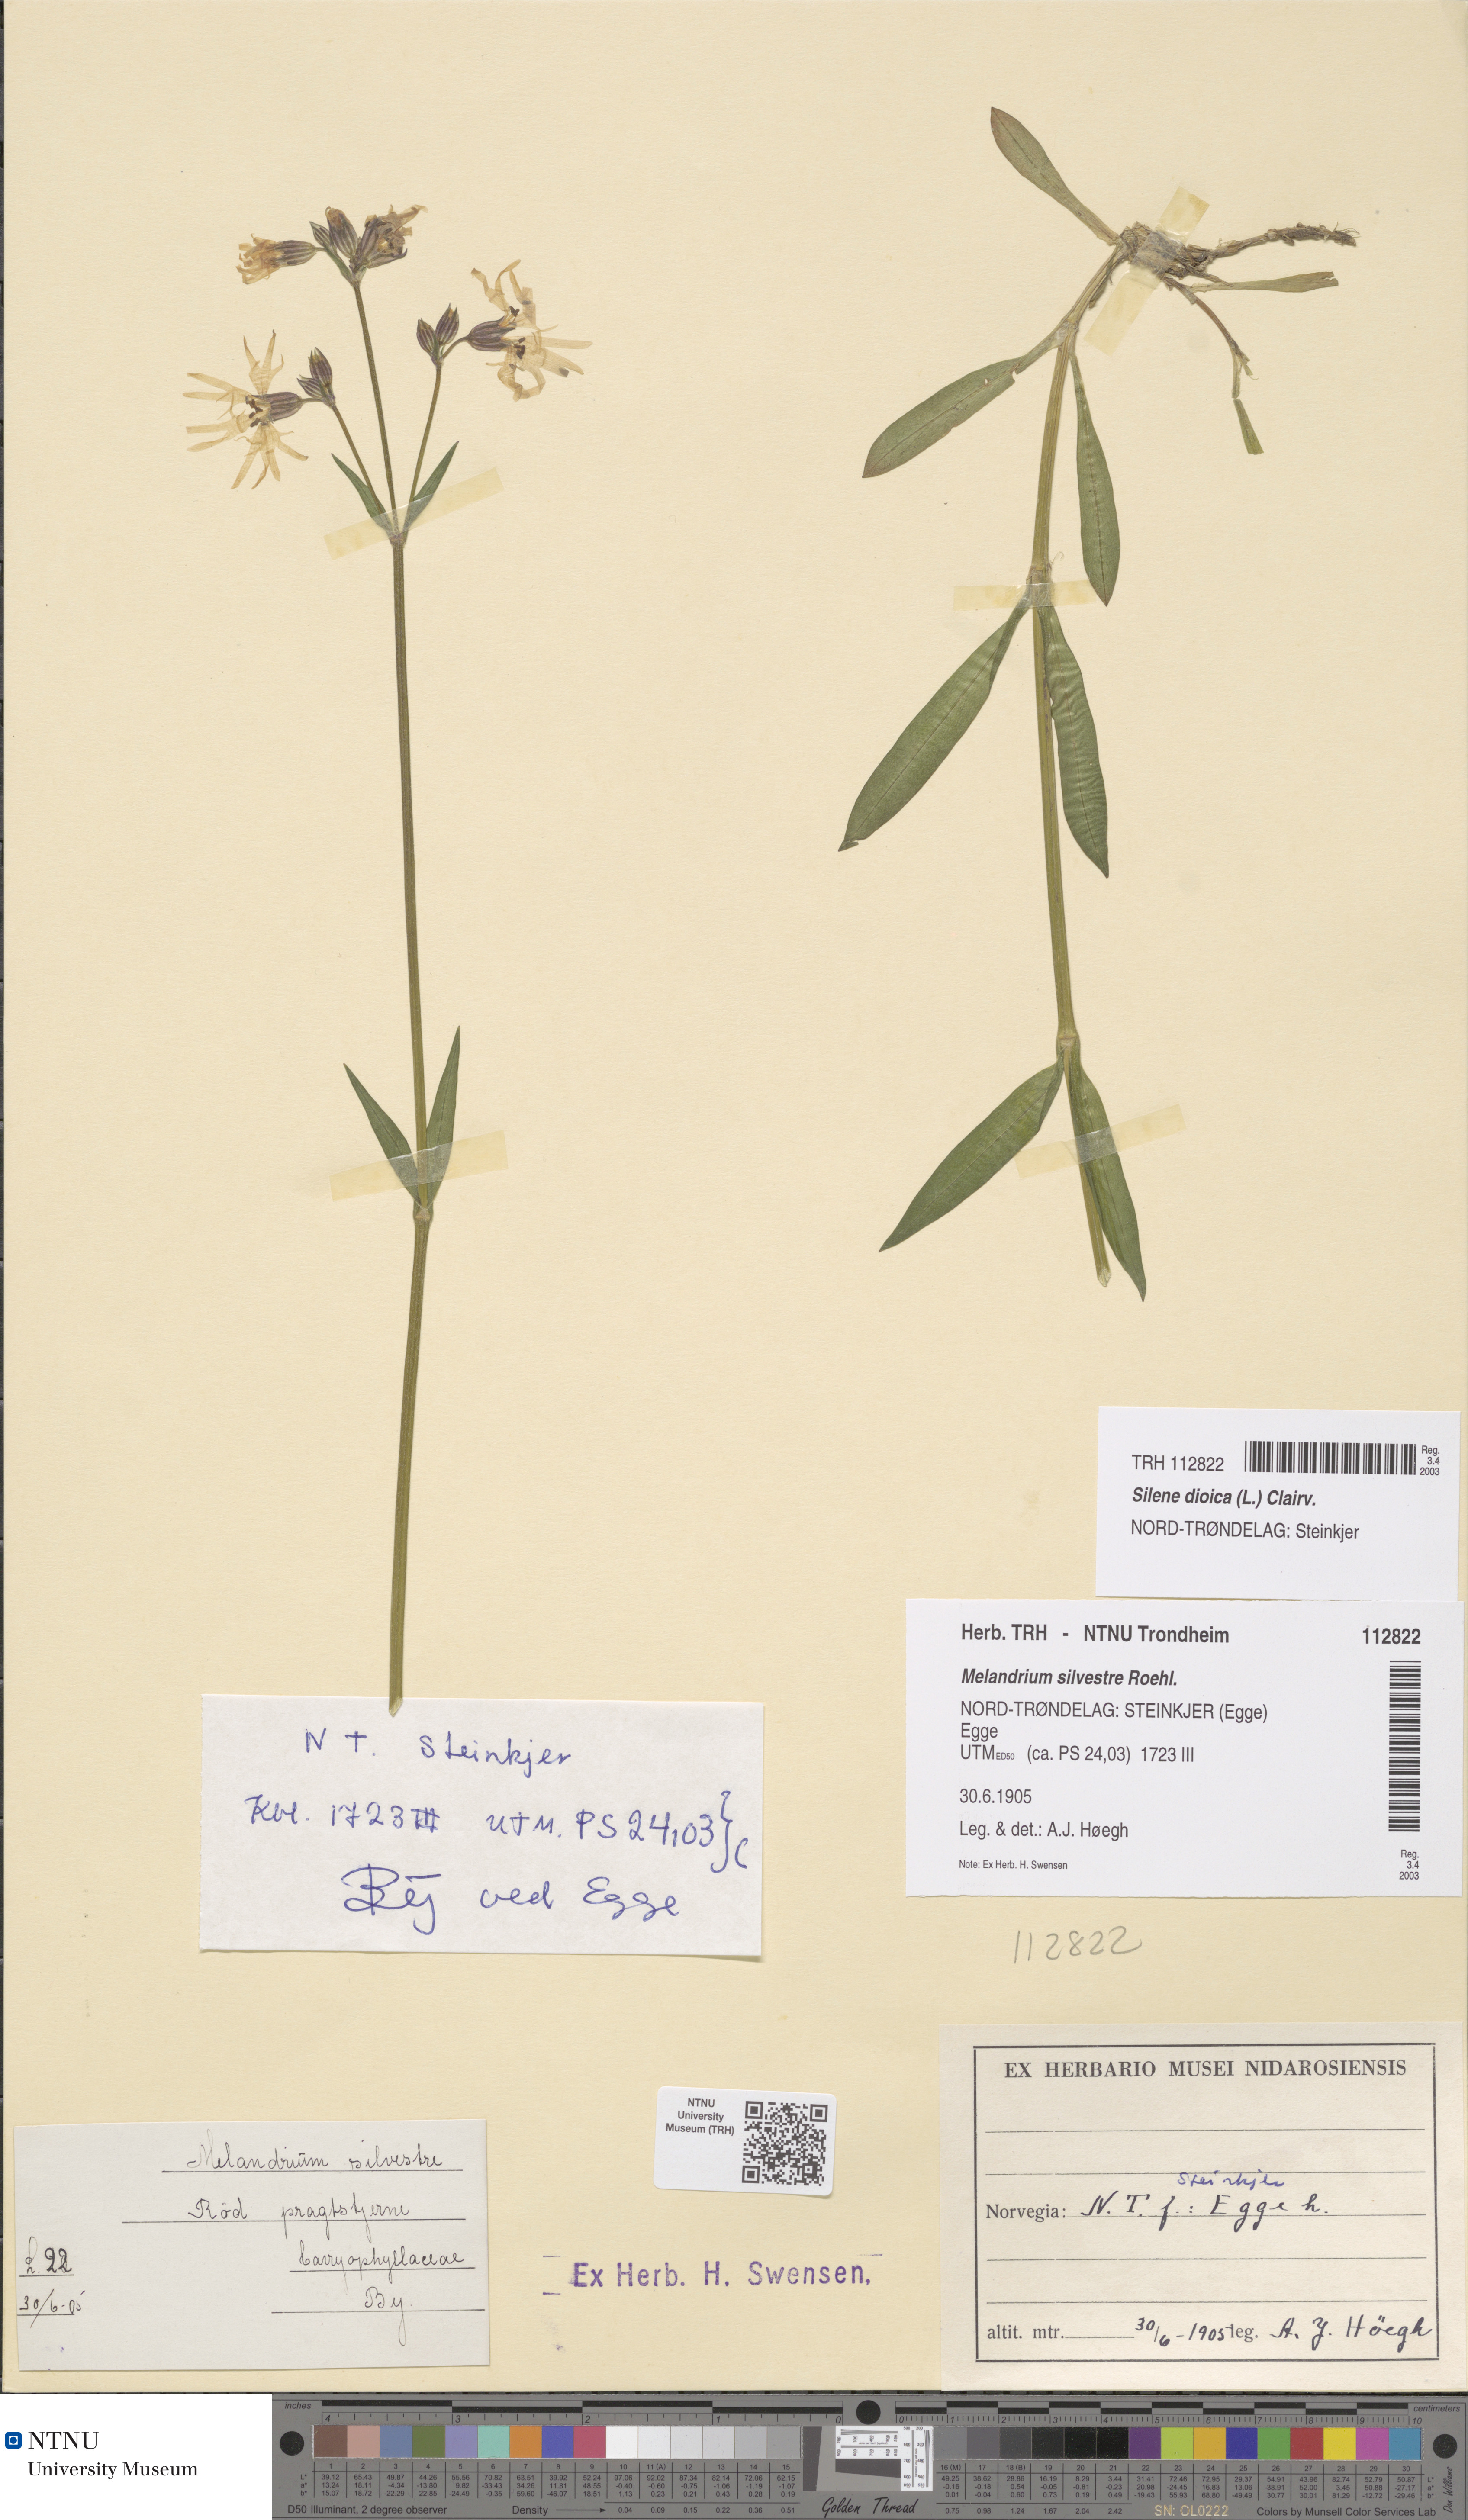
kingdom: Plantae
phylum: Tracheophyta
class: Magnoliopsida
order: Caryophyllales
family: Caryophyllaceae
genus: Silene
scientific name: Silene dioica
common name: Red campion
